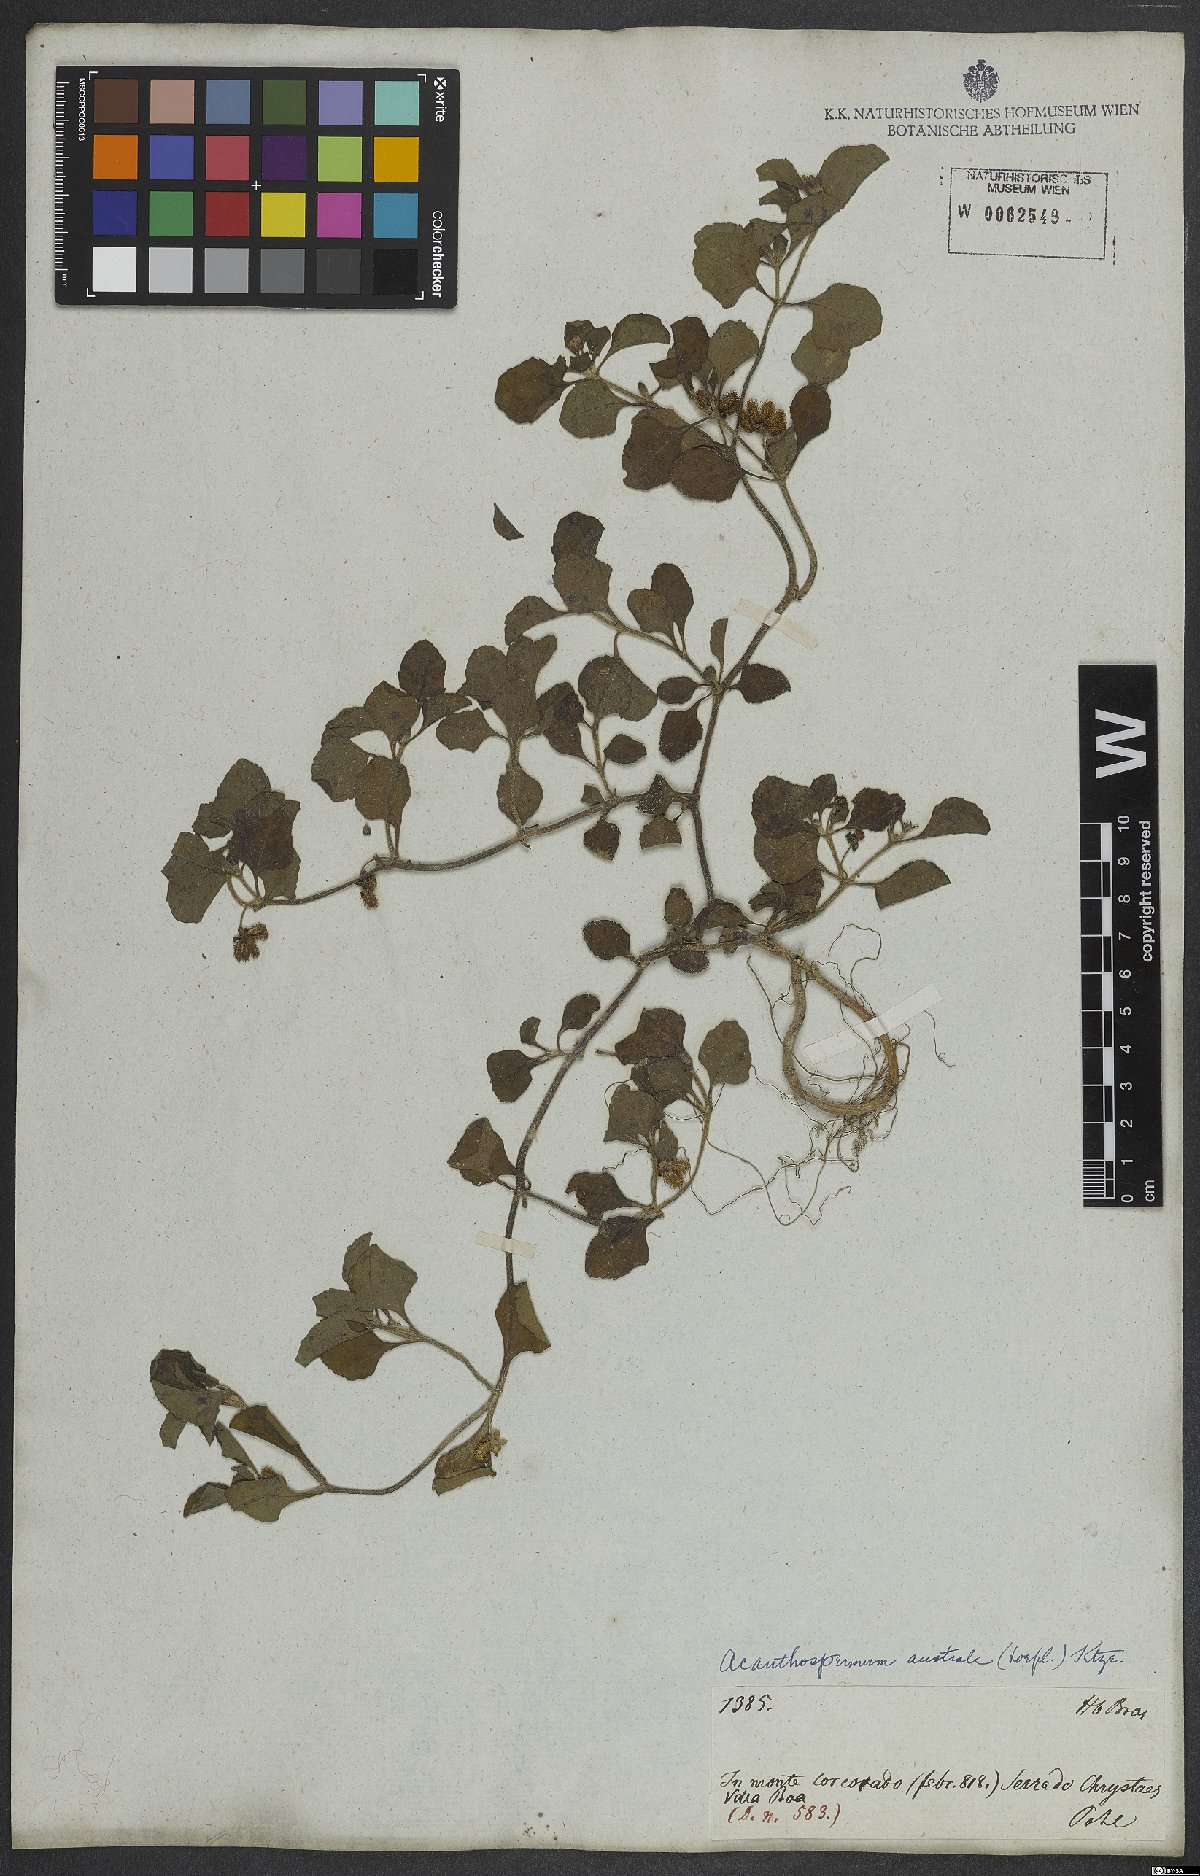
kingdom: Plantae
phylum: Tracheophyta
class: Magnoliopsida
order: Asterales
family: Asteraceae
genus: Acanthospermum
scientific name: Acanthospermum australe
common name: Paraguayan starbur
